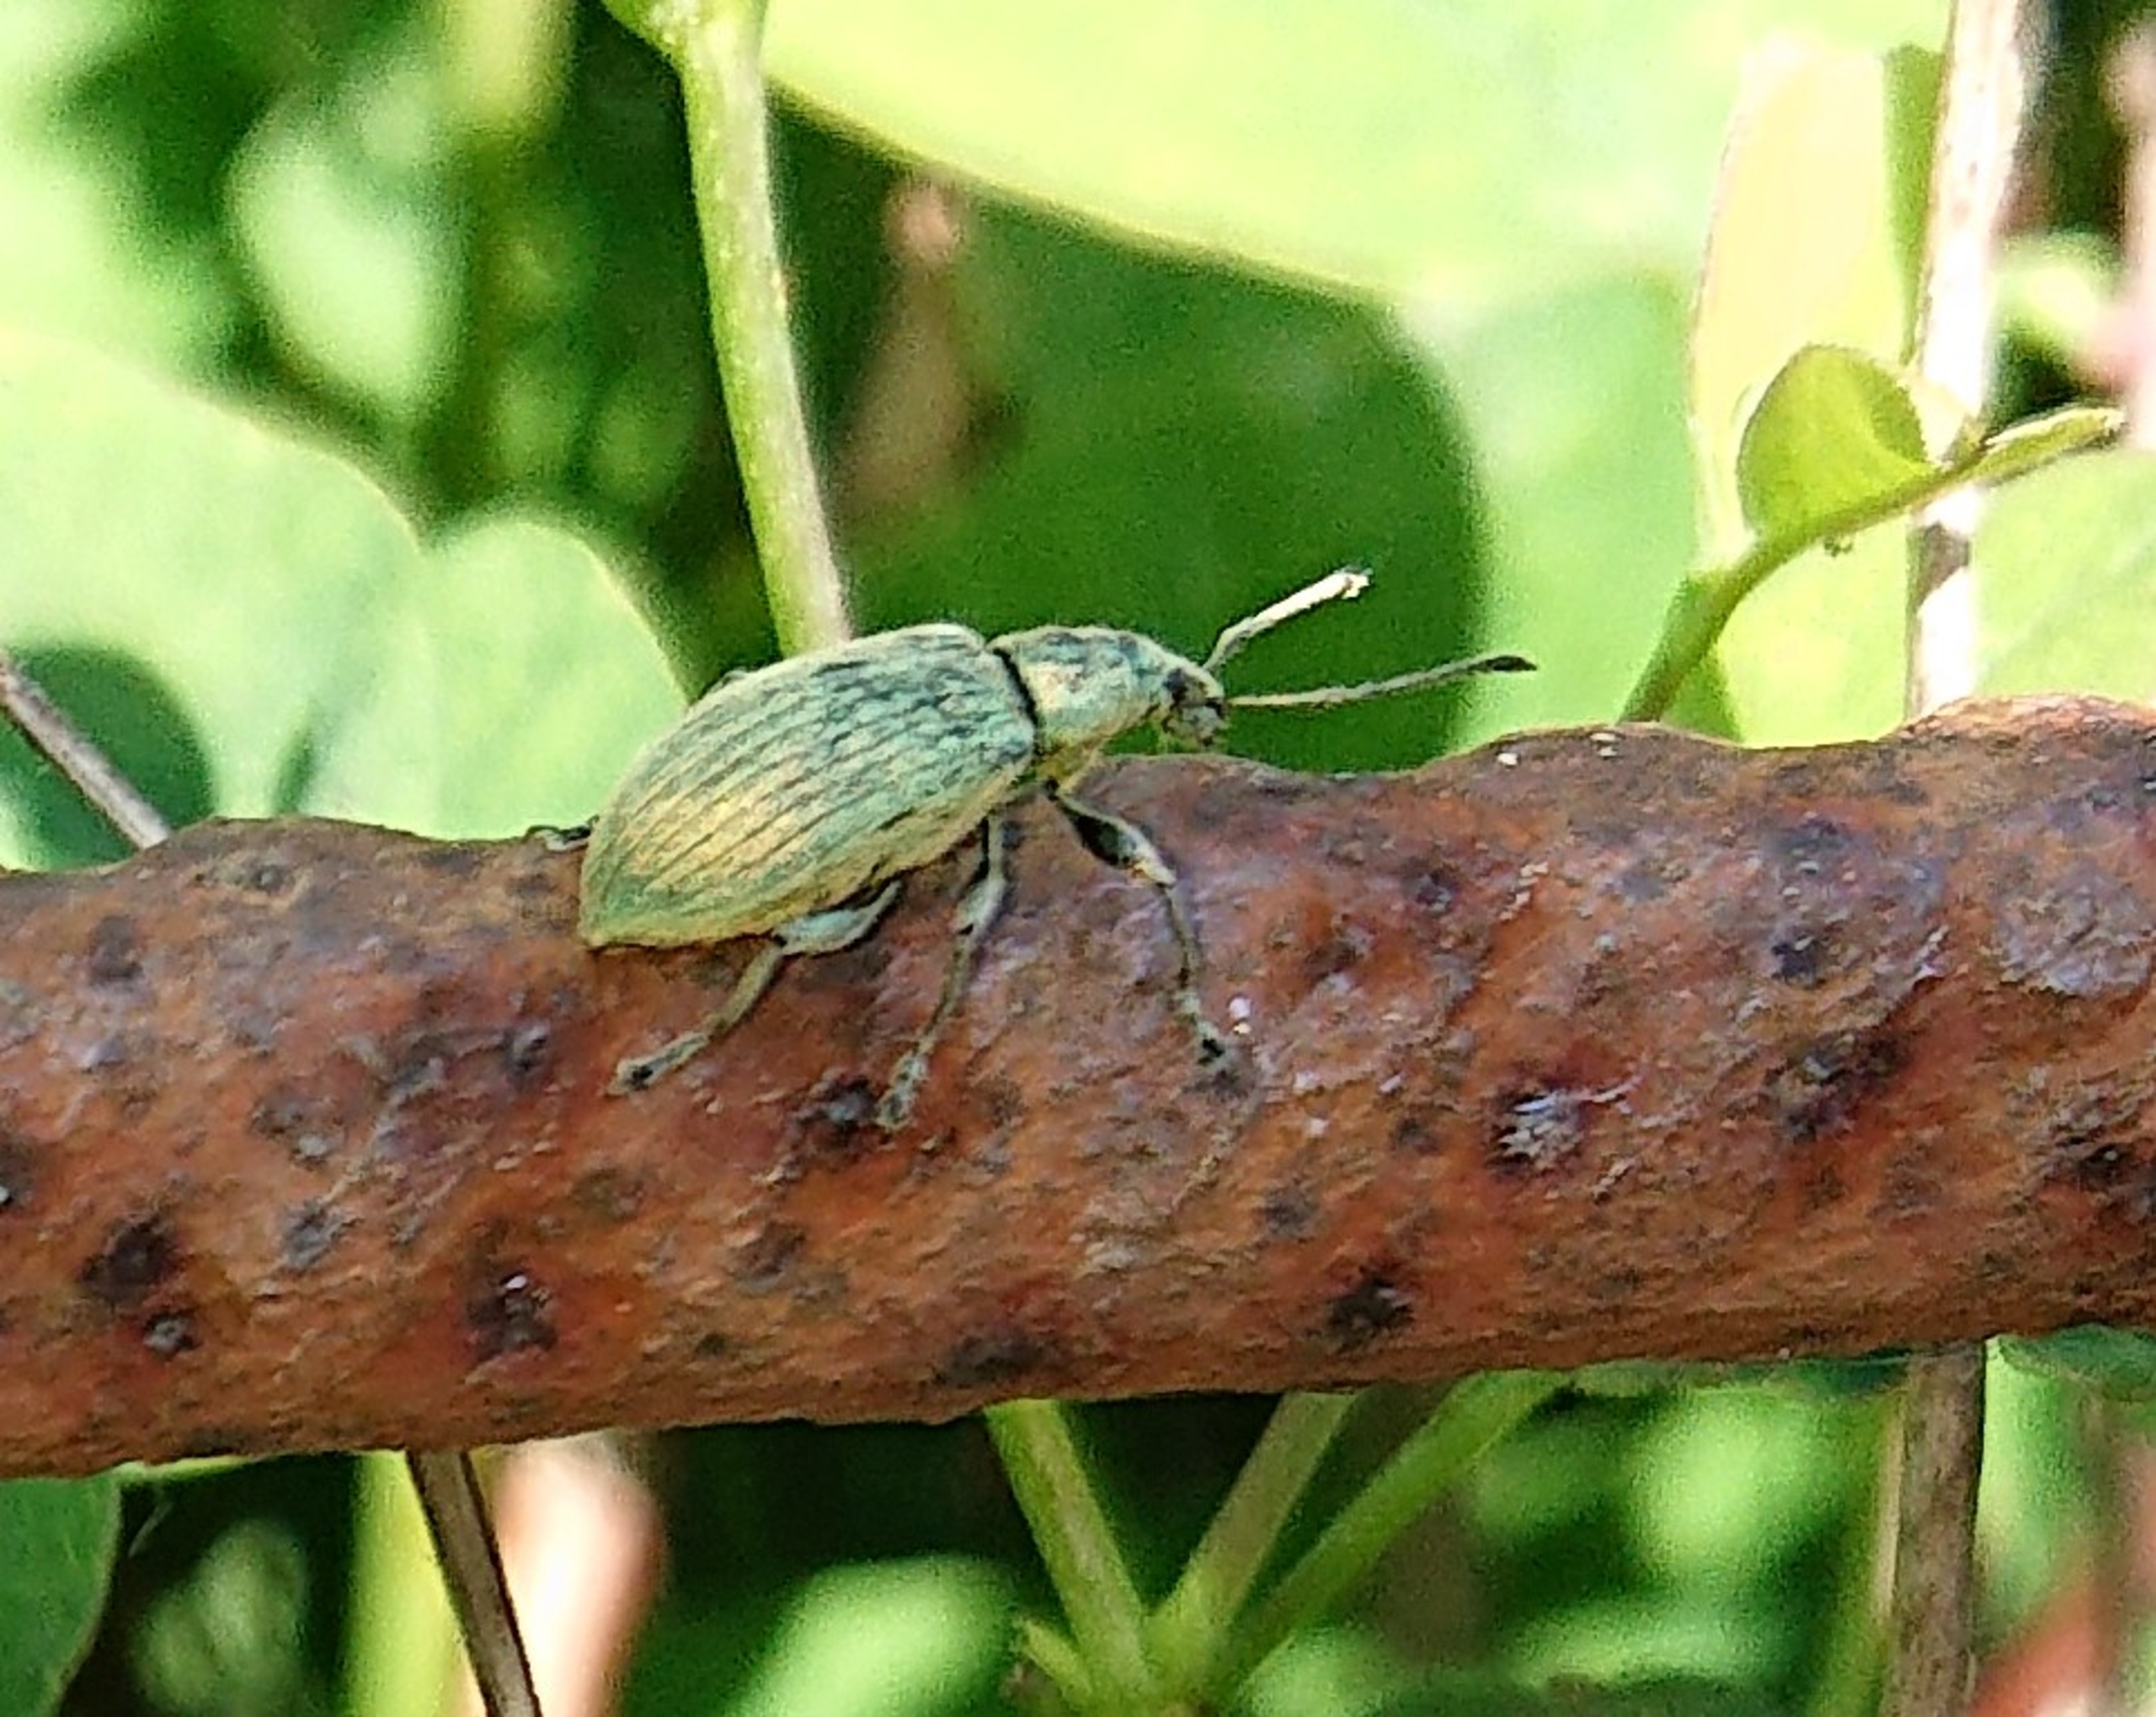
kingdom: Animalia
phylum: Arthropoda
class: Insecta
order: Coleoptera
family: Curculionidae
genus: Phyllobius
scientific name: Phyllobius pomaceus
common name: Nældesnudebille
